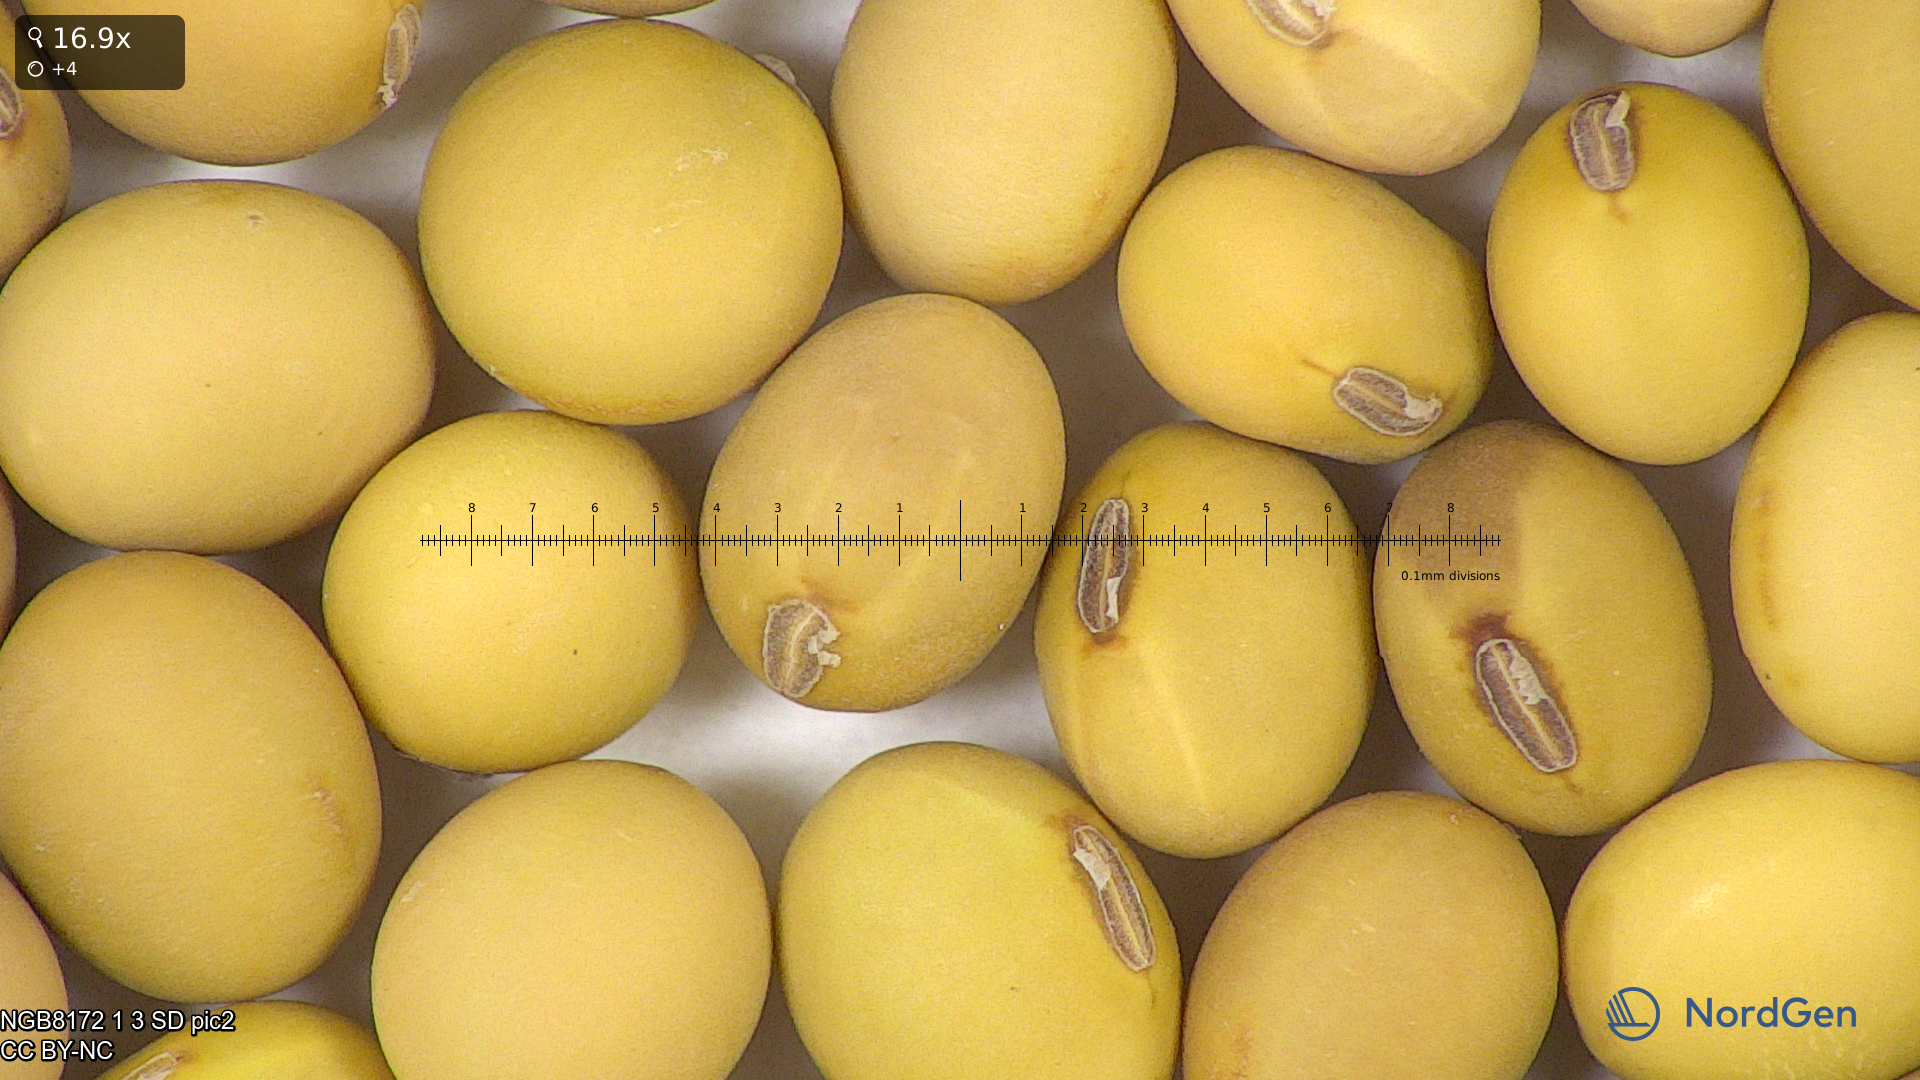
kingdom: Plantae
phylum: Tracheophyta
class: Magnoliopsida
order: Fabales
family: Fabaceae
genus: Glycine
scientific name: Glycine max
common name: Soya-bean
